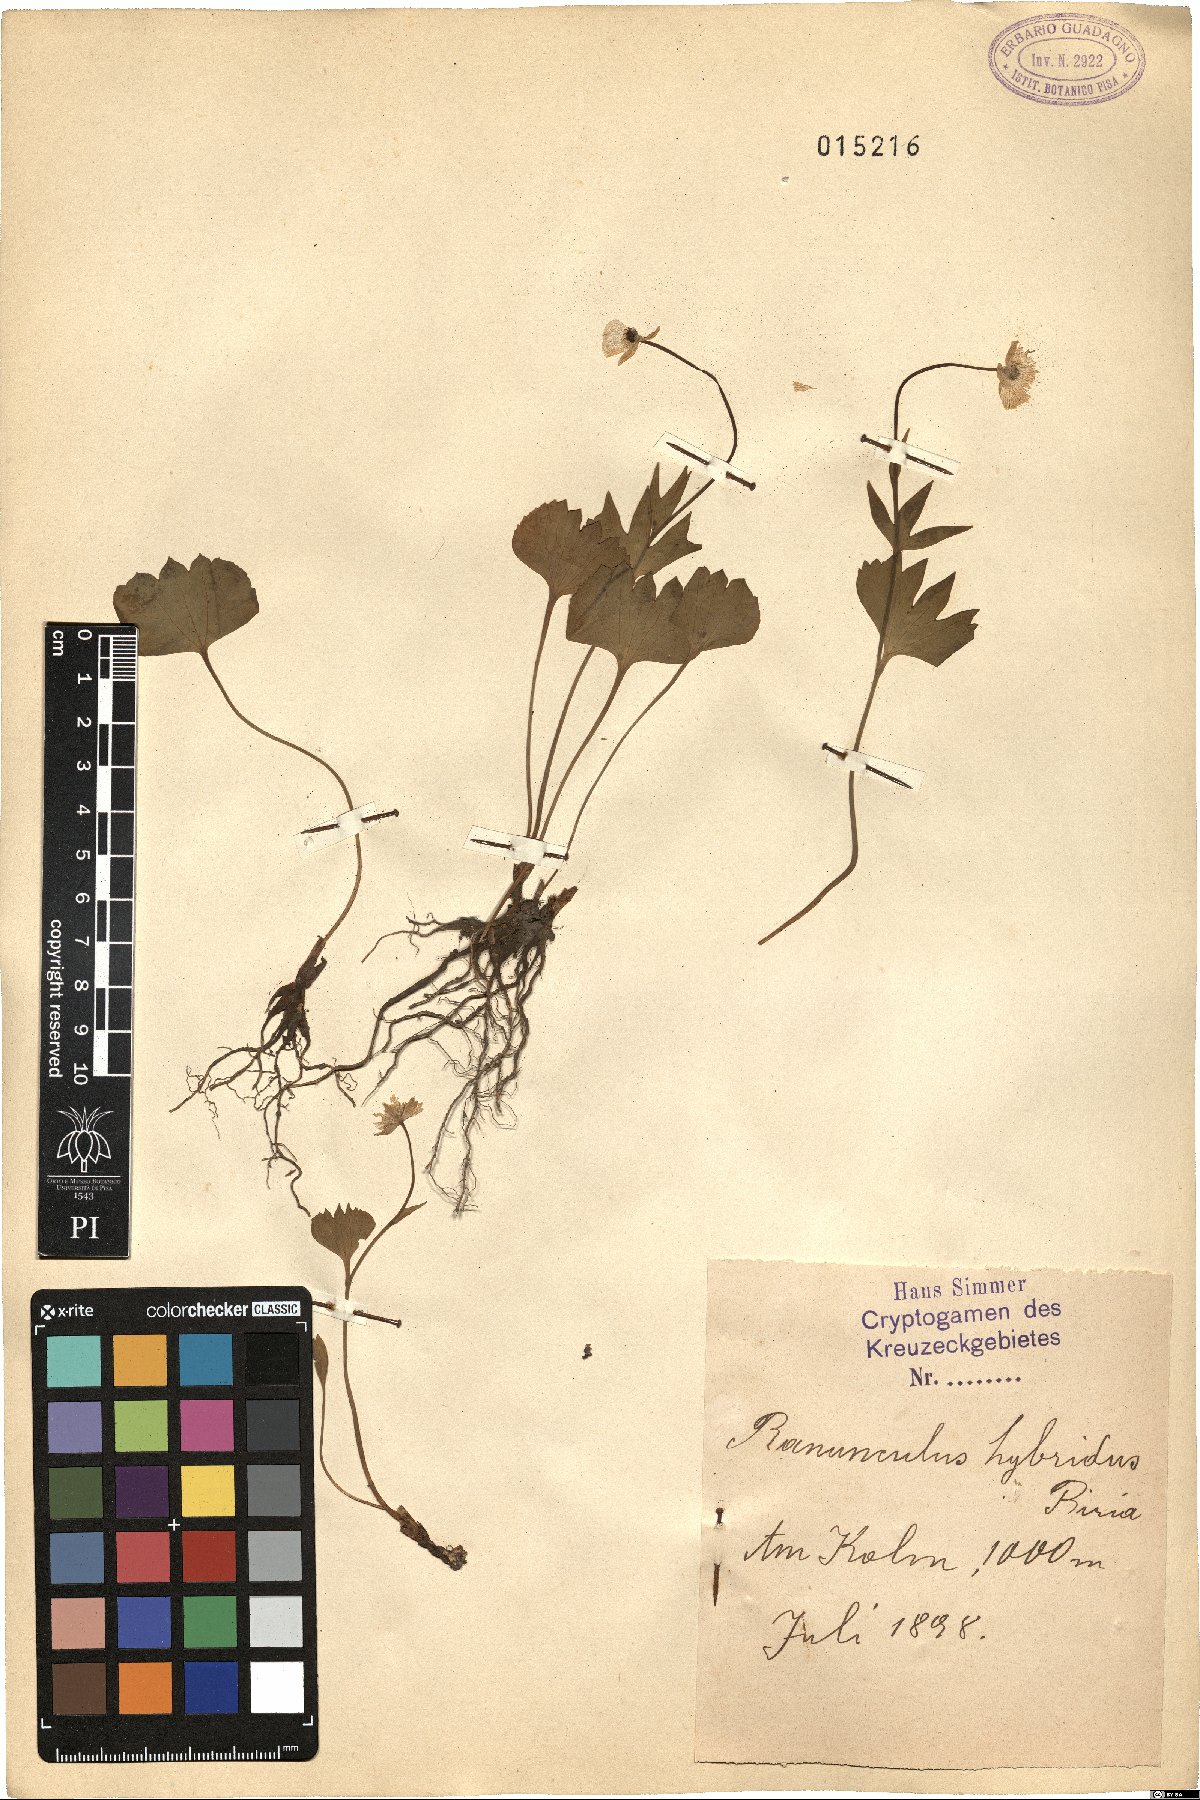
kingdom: Plantae
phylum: Tracheophyta
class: Magnoliopsida
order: Ranunculales
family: Ranunculaceae
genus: Ranunculus
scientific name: Ranunculus hybridus
